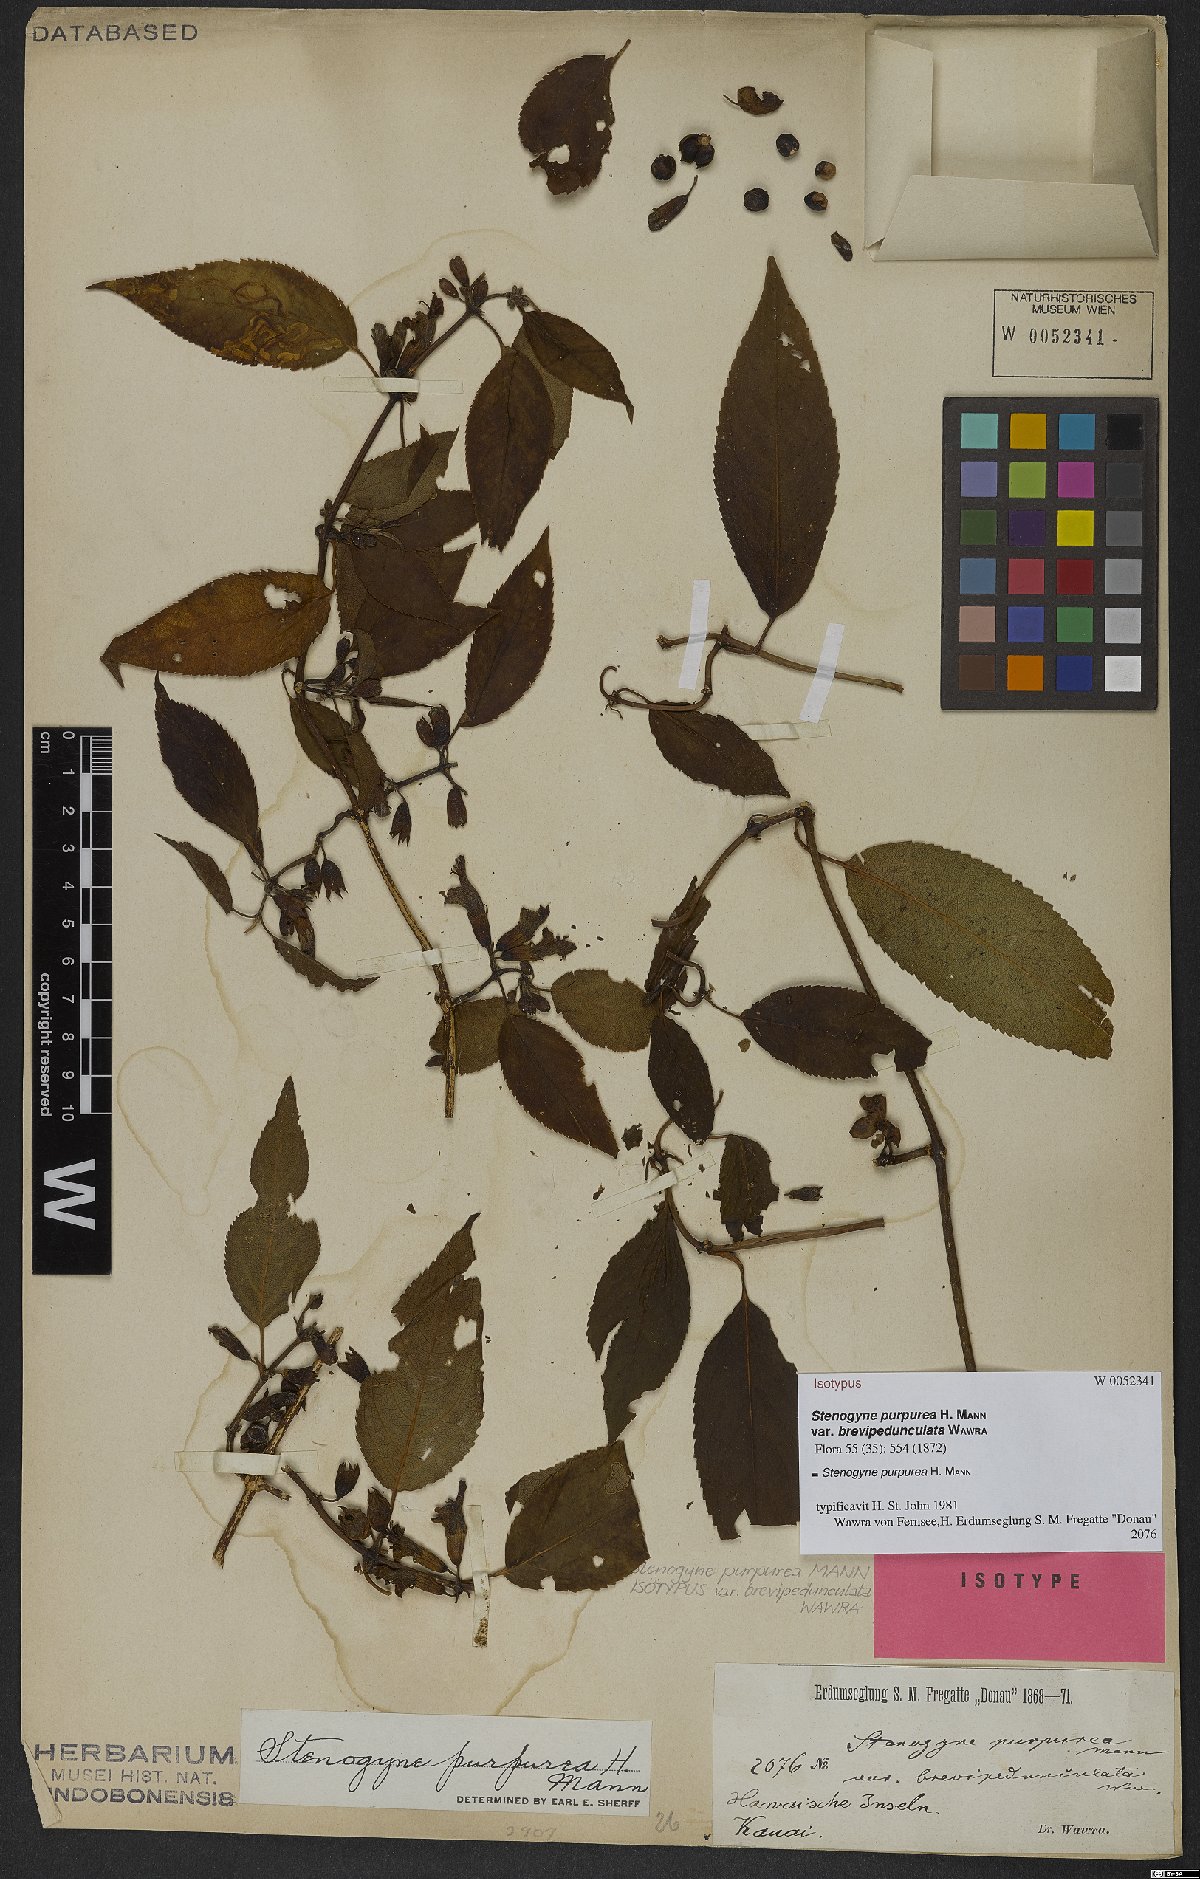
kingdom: Plantae
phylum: Tracheophyta
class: Magnoliopsida
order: Lamiales
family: Lamiaceae
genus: Stenogyne
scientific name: Stenogyne purpurea
